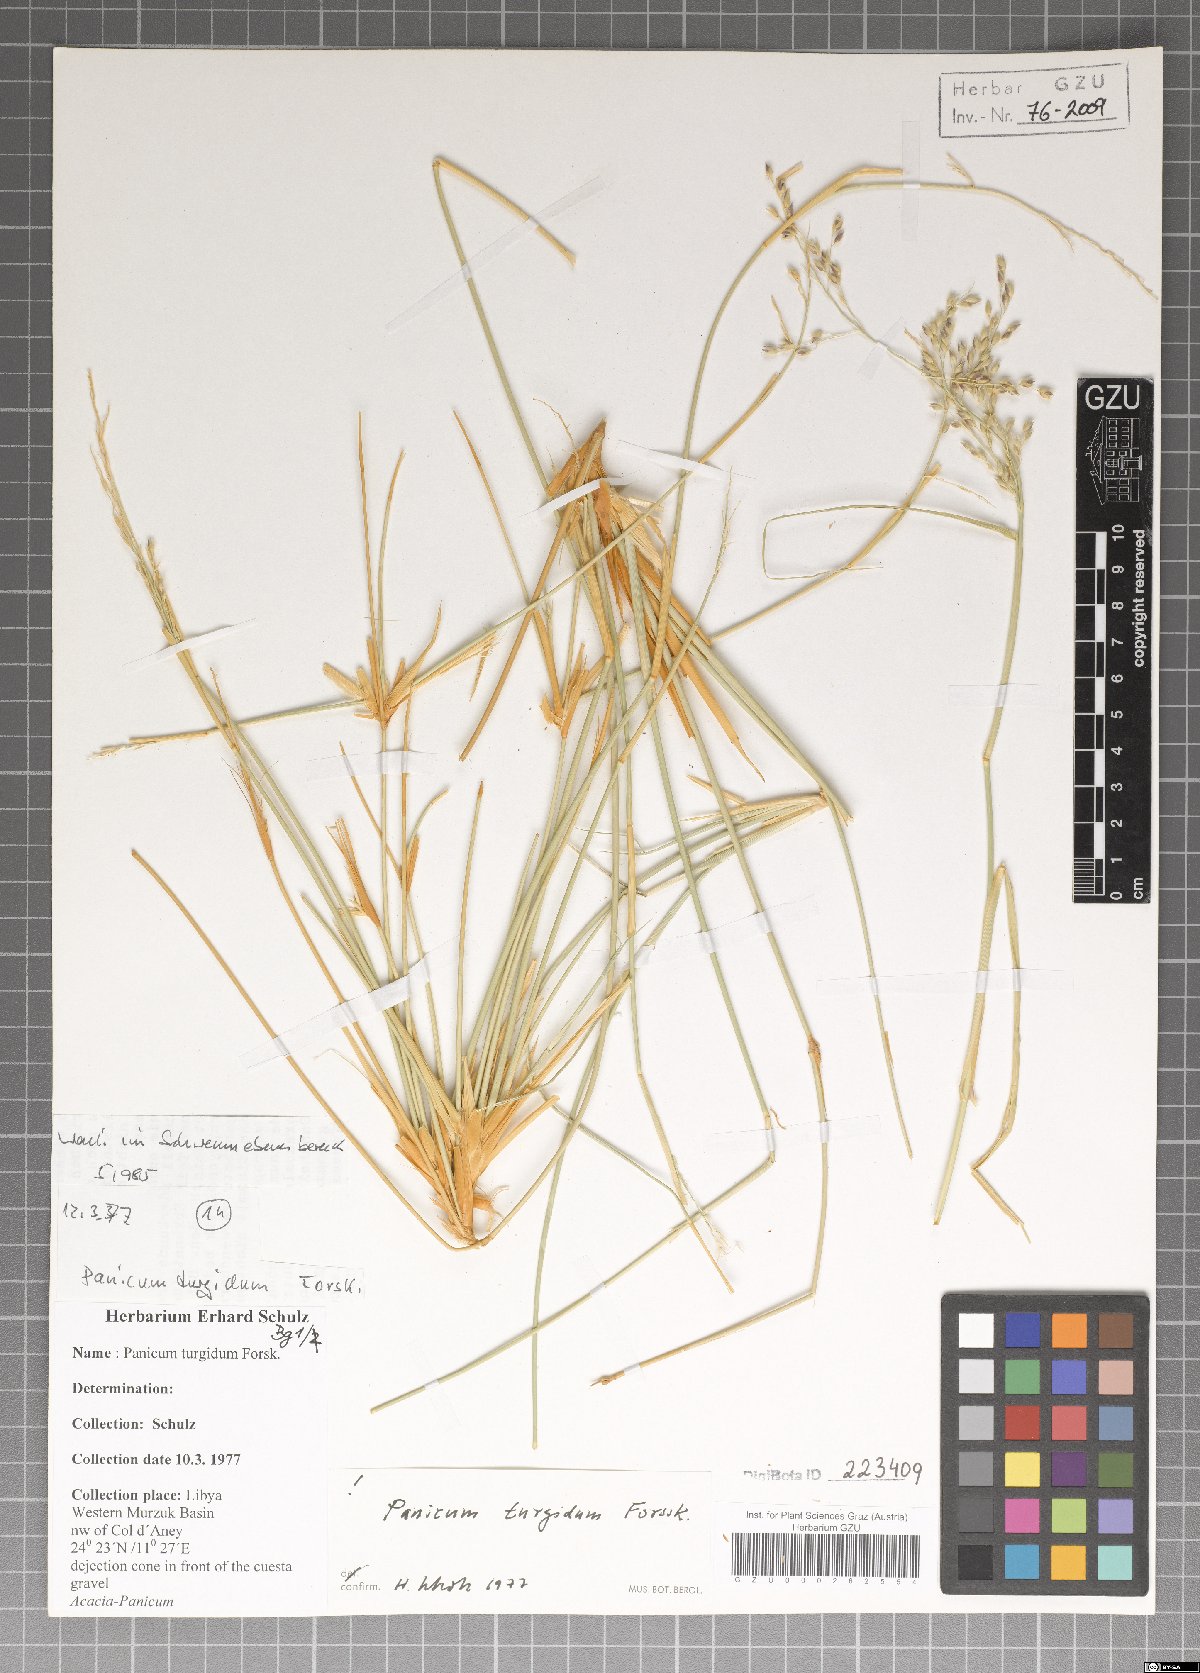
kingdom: Plantae
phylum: Tracheophyta
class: Liliopsida
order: Poales
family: Poaceae
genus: Panicum
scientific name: Panicum turgidum
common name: Desert grass
